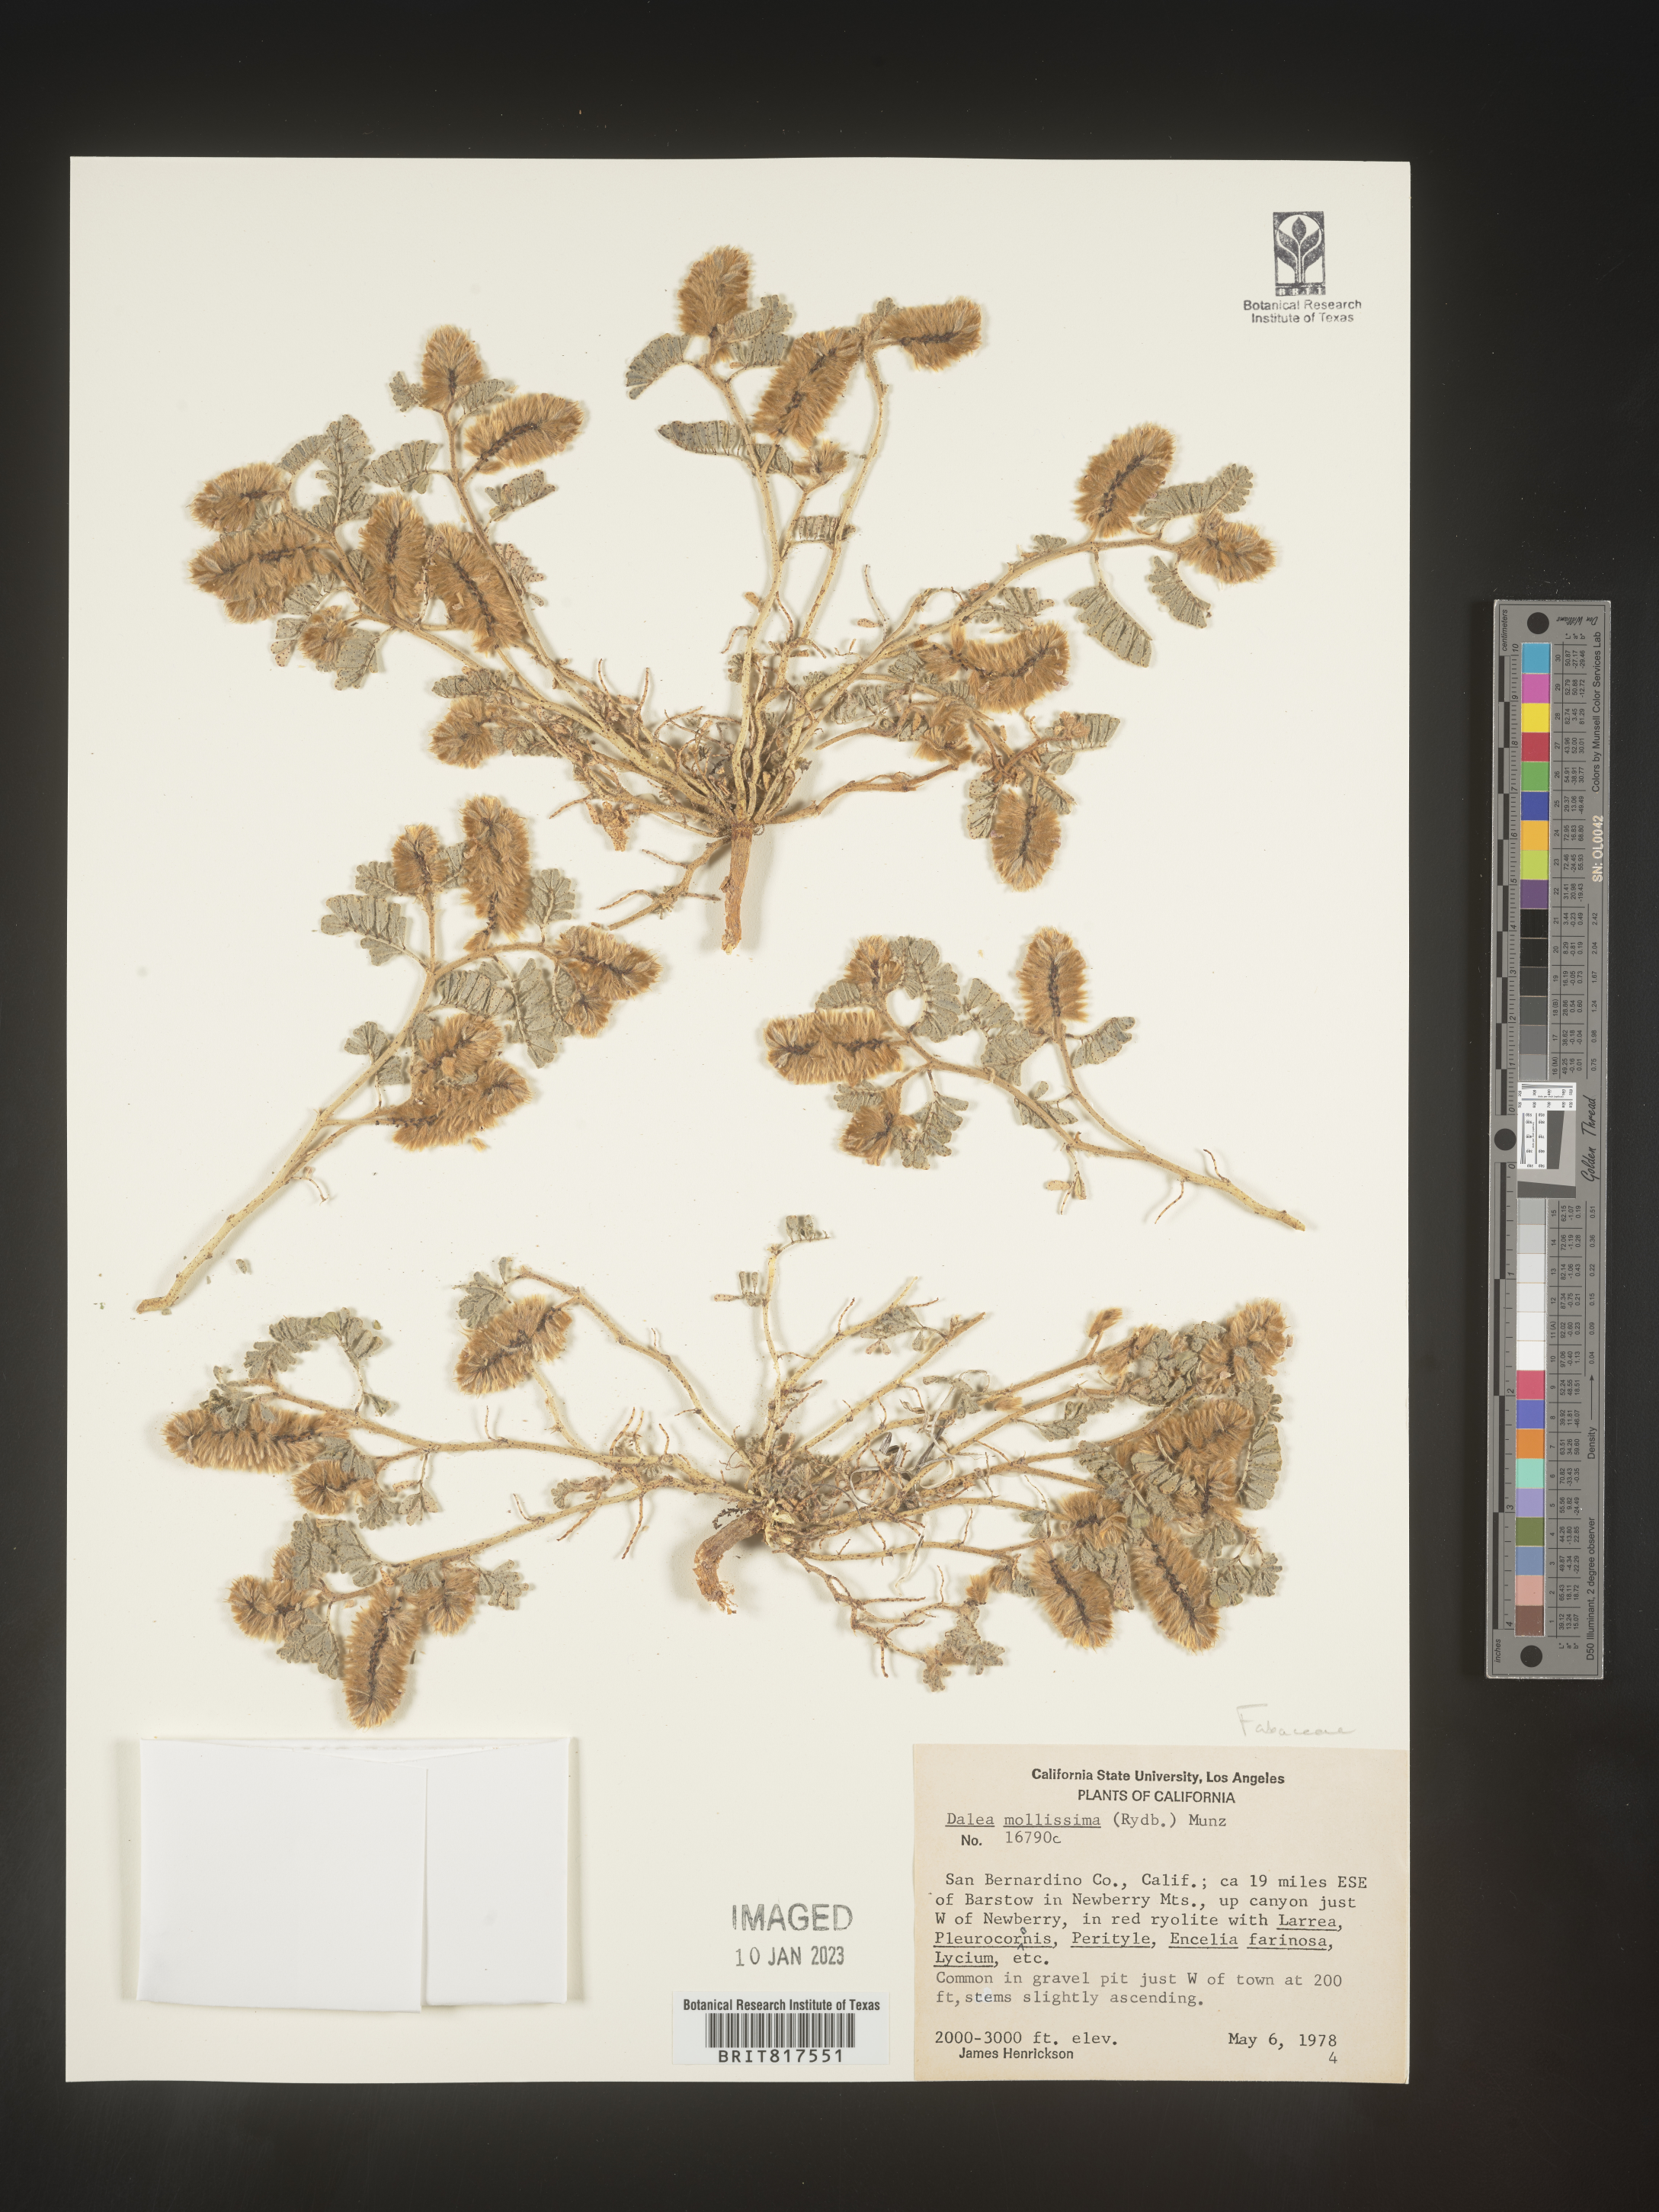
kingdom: Plantae
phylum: Tracheophyta
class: Magnoliopsida
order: Fabales
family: Fabaceae
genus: Dalea
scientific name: Dalea leporina
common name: Foxtail dalea
